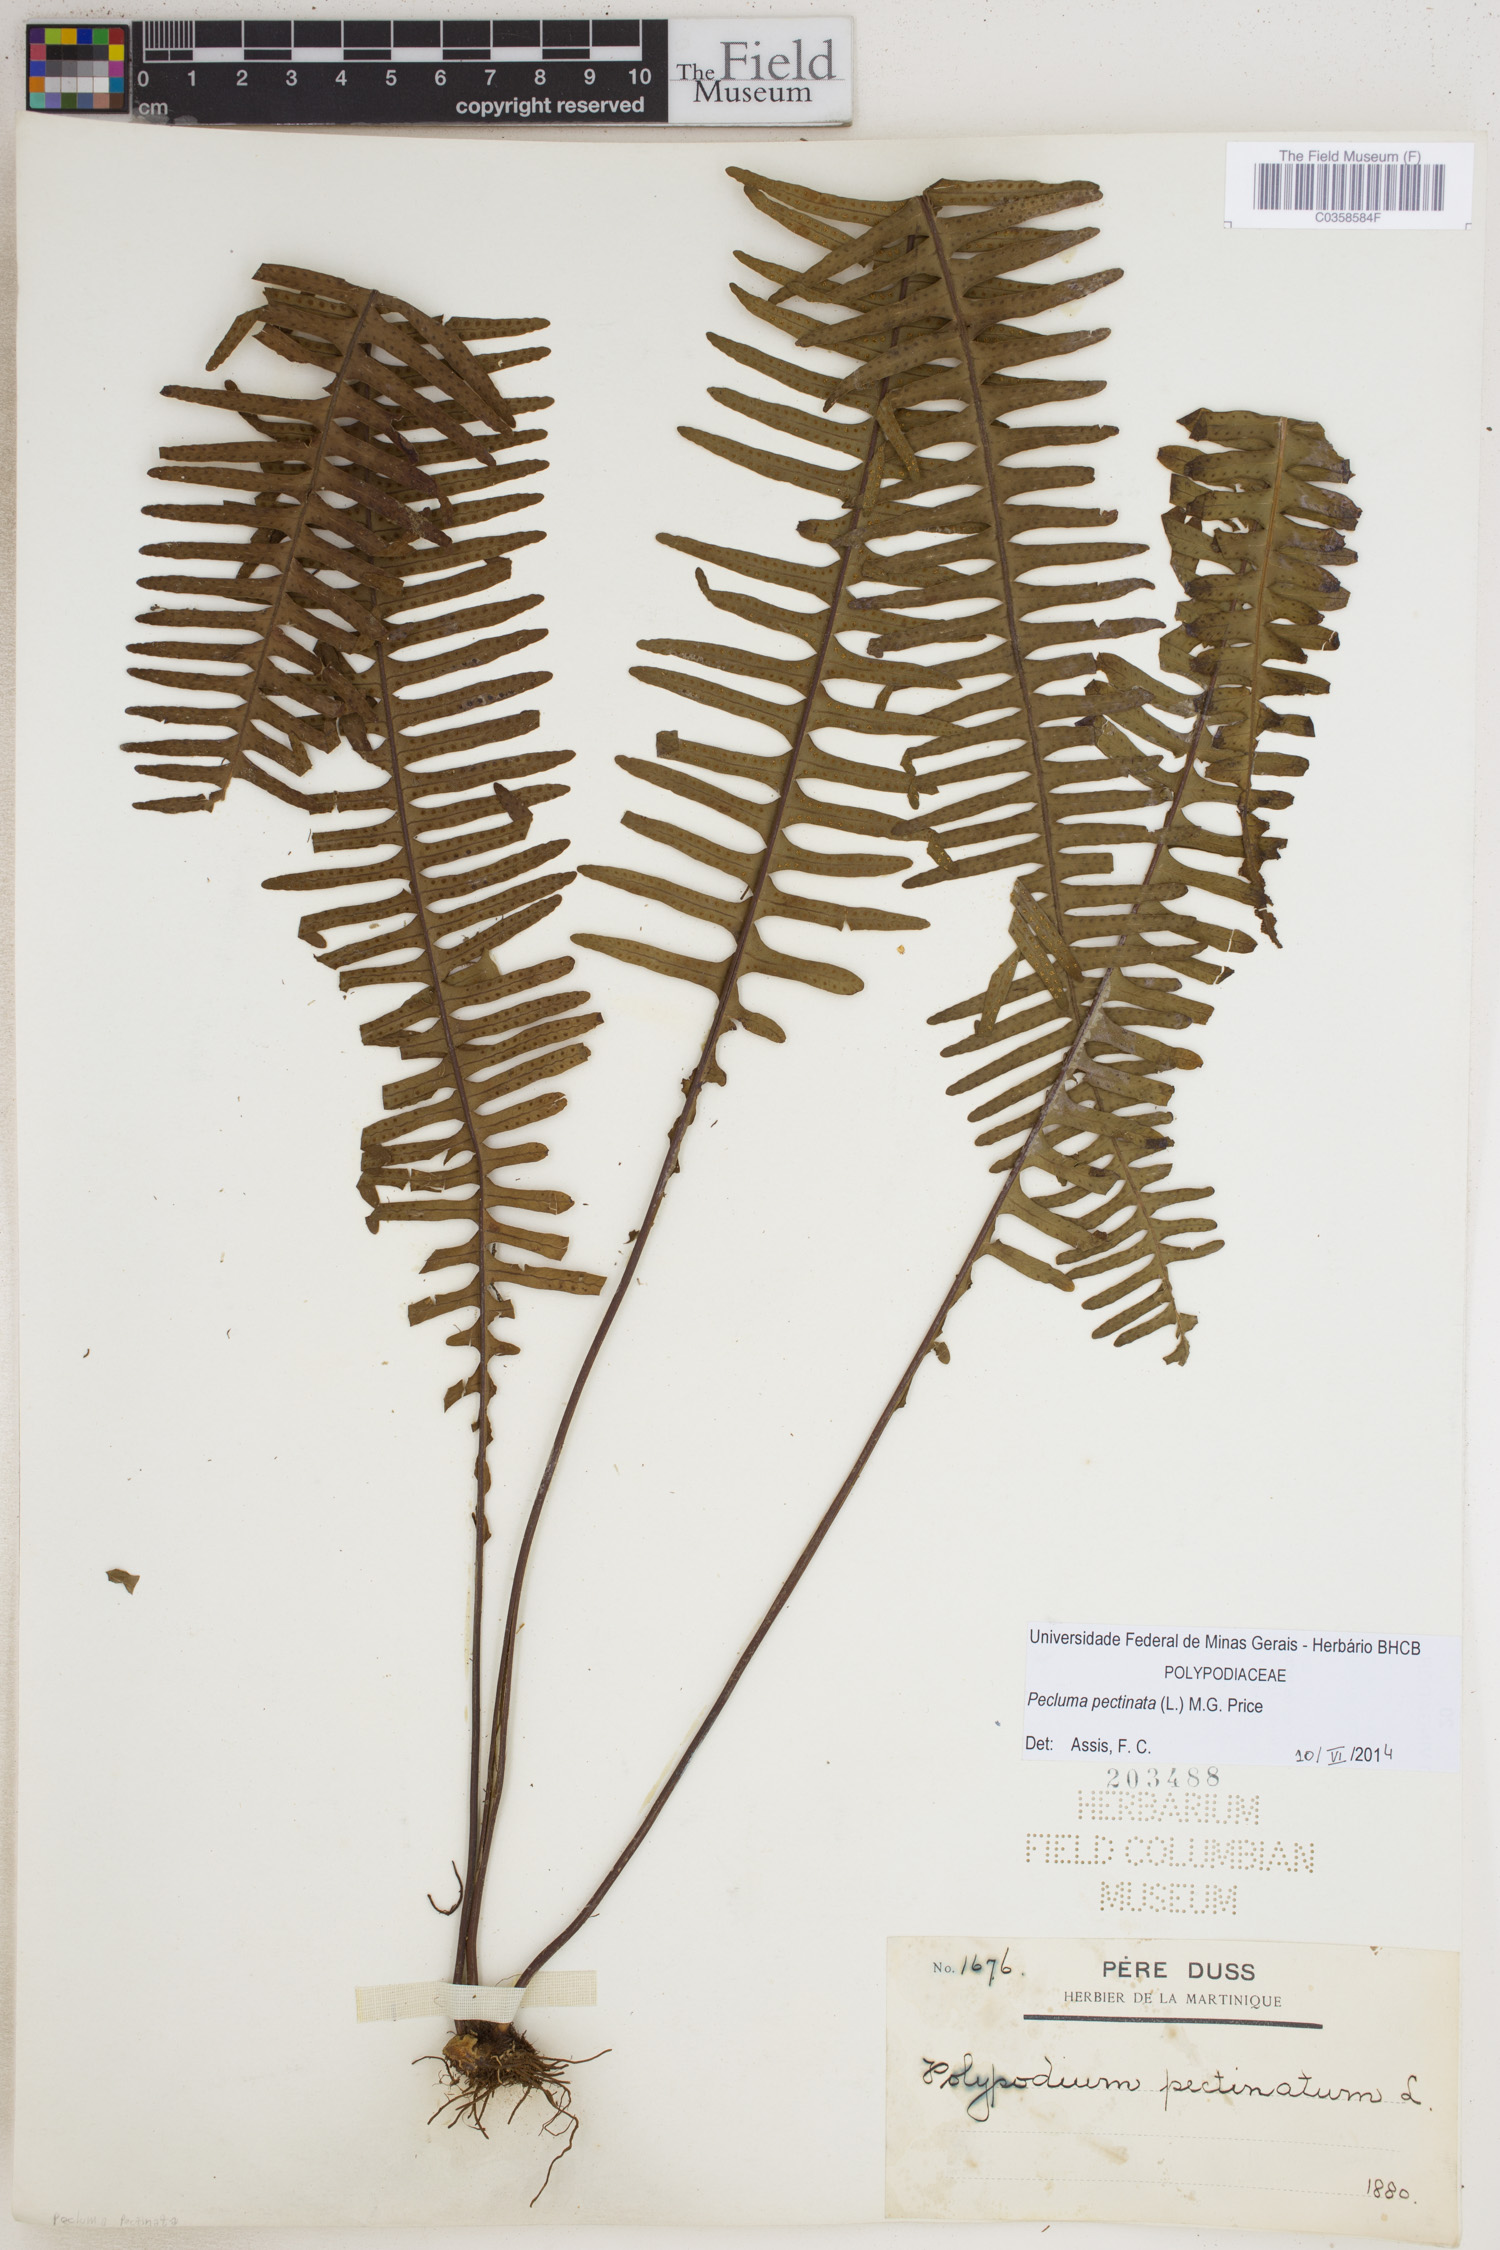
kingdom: Plantae
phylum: Tracheophyta
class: Polypodiopsida
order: Polypodiales
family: Polypodiaceae
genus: Pecluma
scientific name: Pecluma pectinata
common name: Msasa fern
